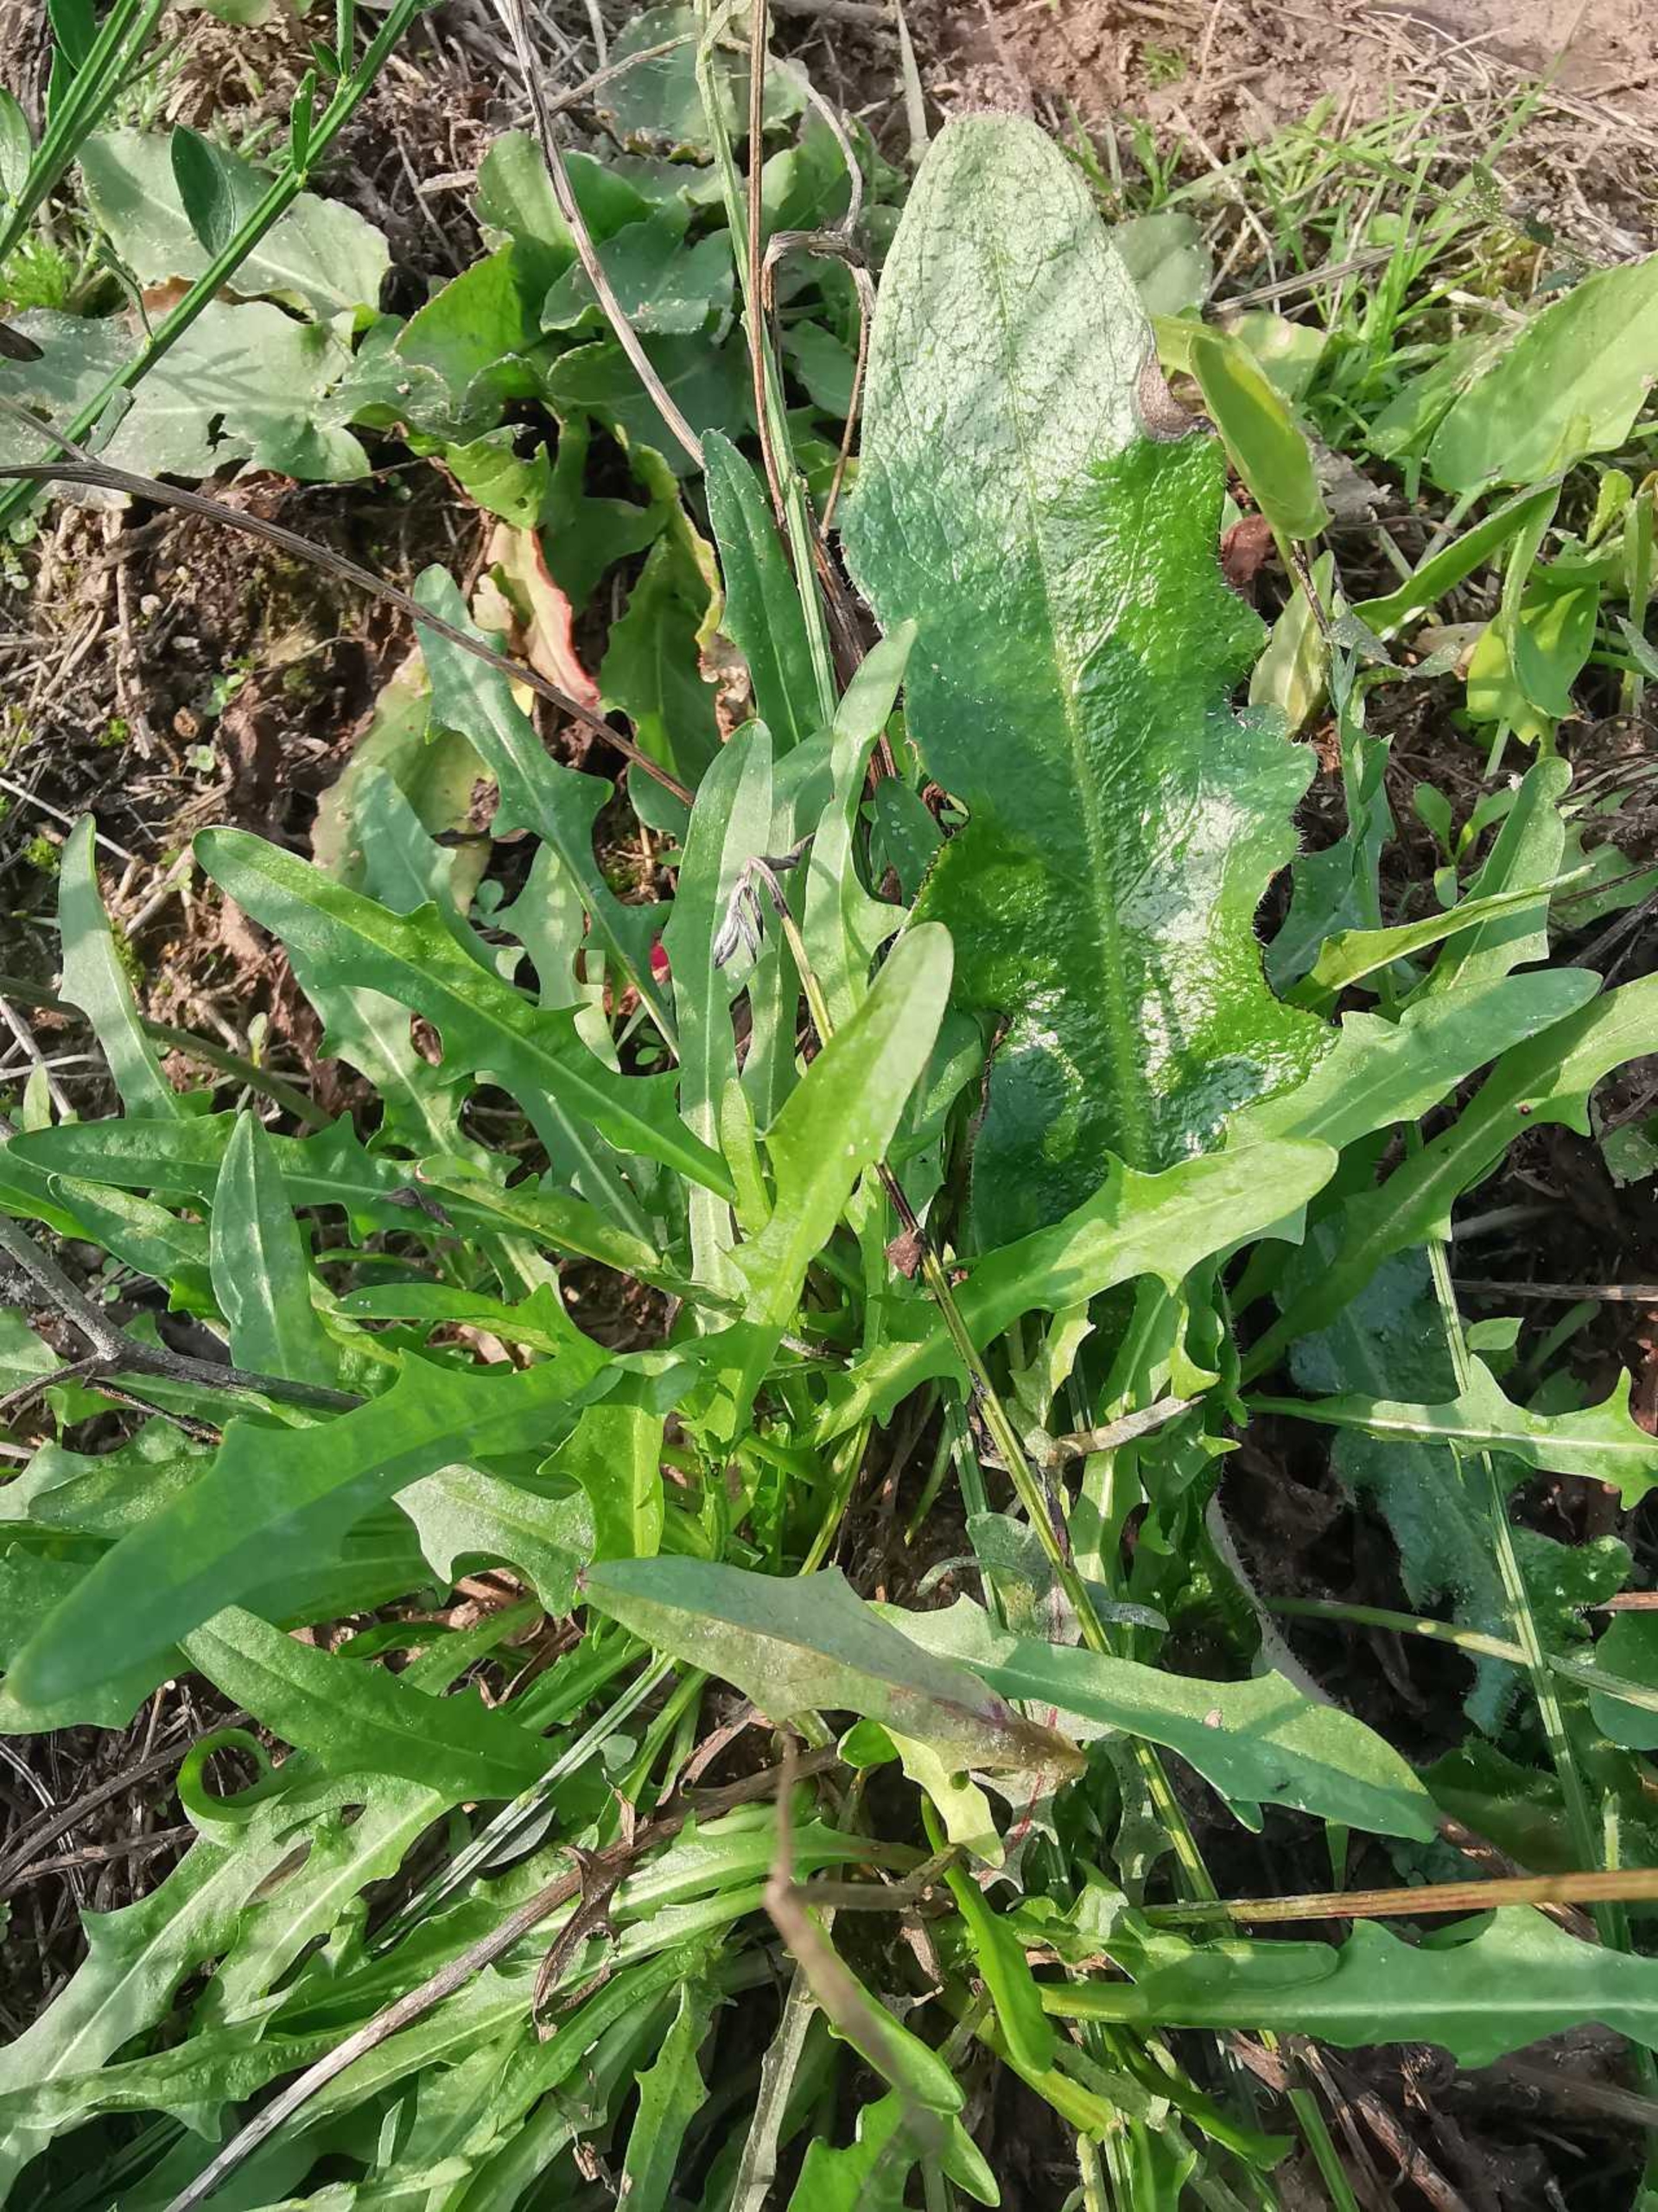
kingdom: Plantae
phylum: Tracheophyta
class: Magnoliopsida
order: Asterales
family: Asteraceae
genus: Scorzoneroides
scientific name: Scorzoneroides autumnalis
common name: Høst-borst
